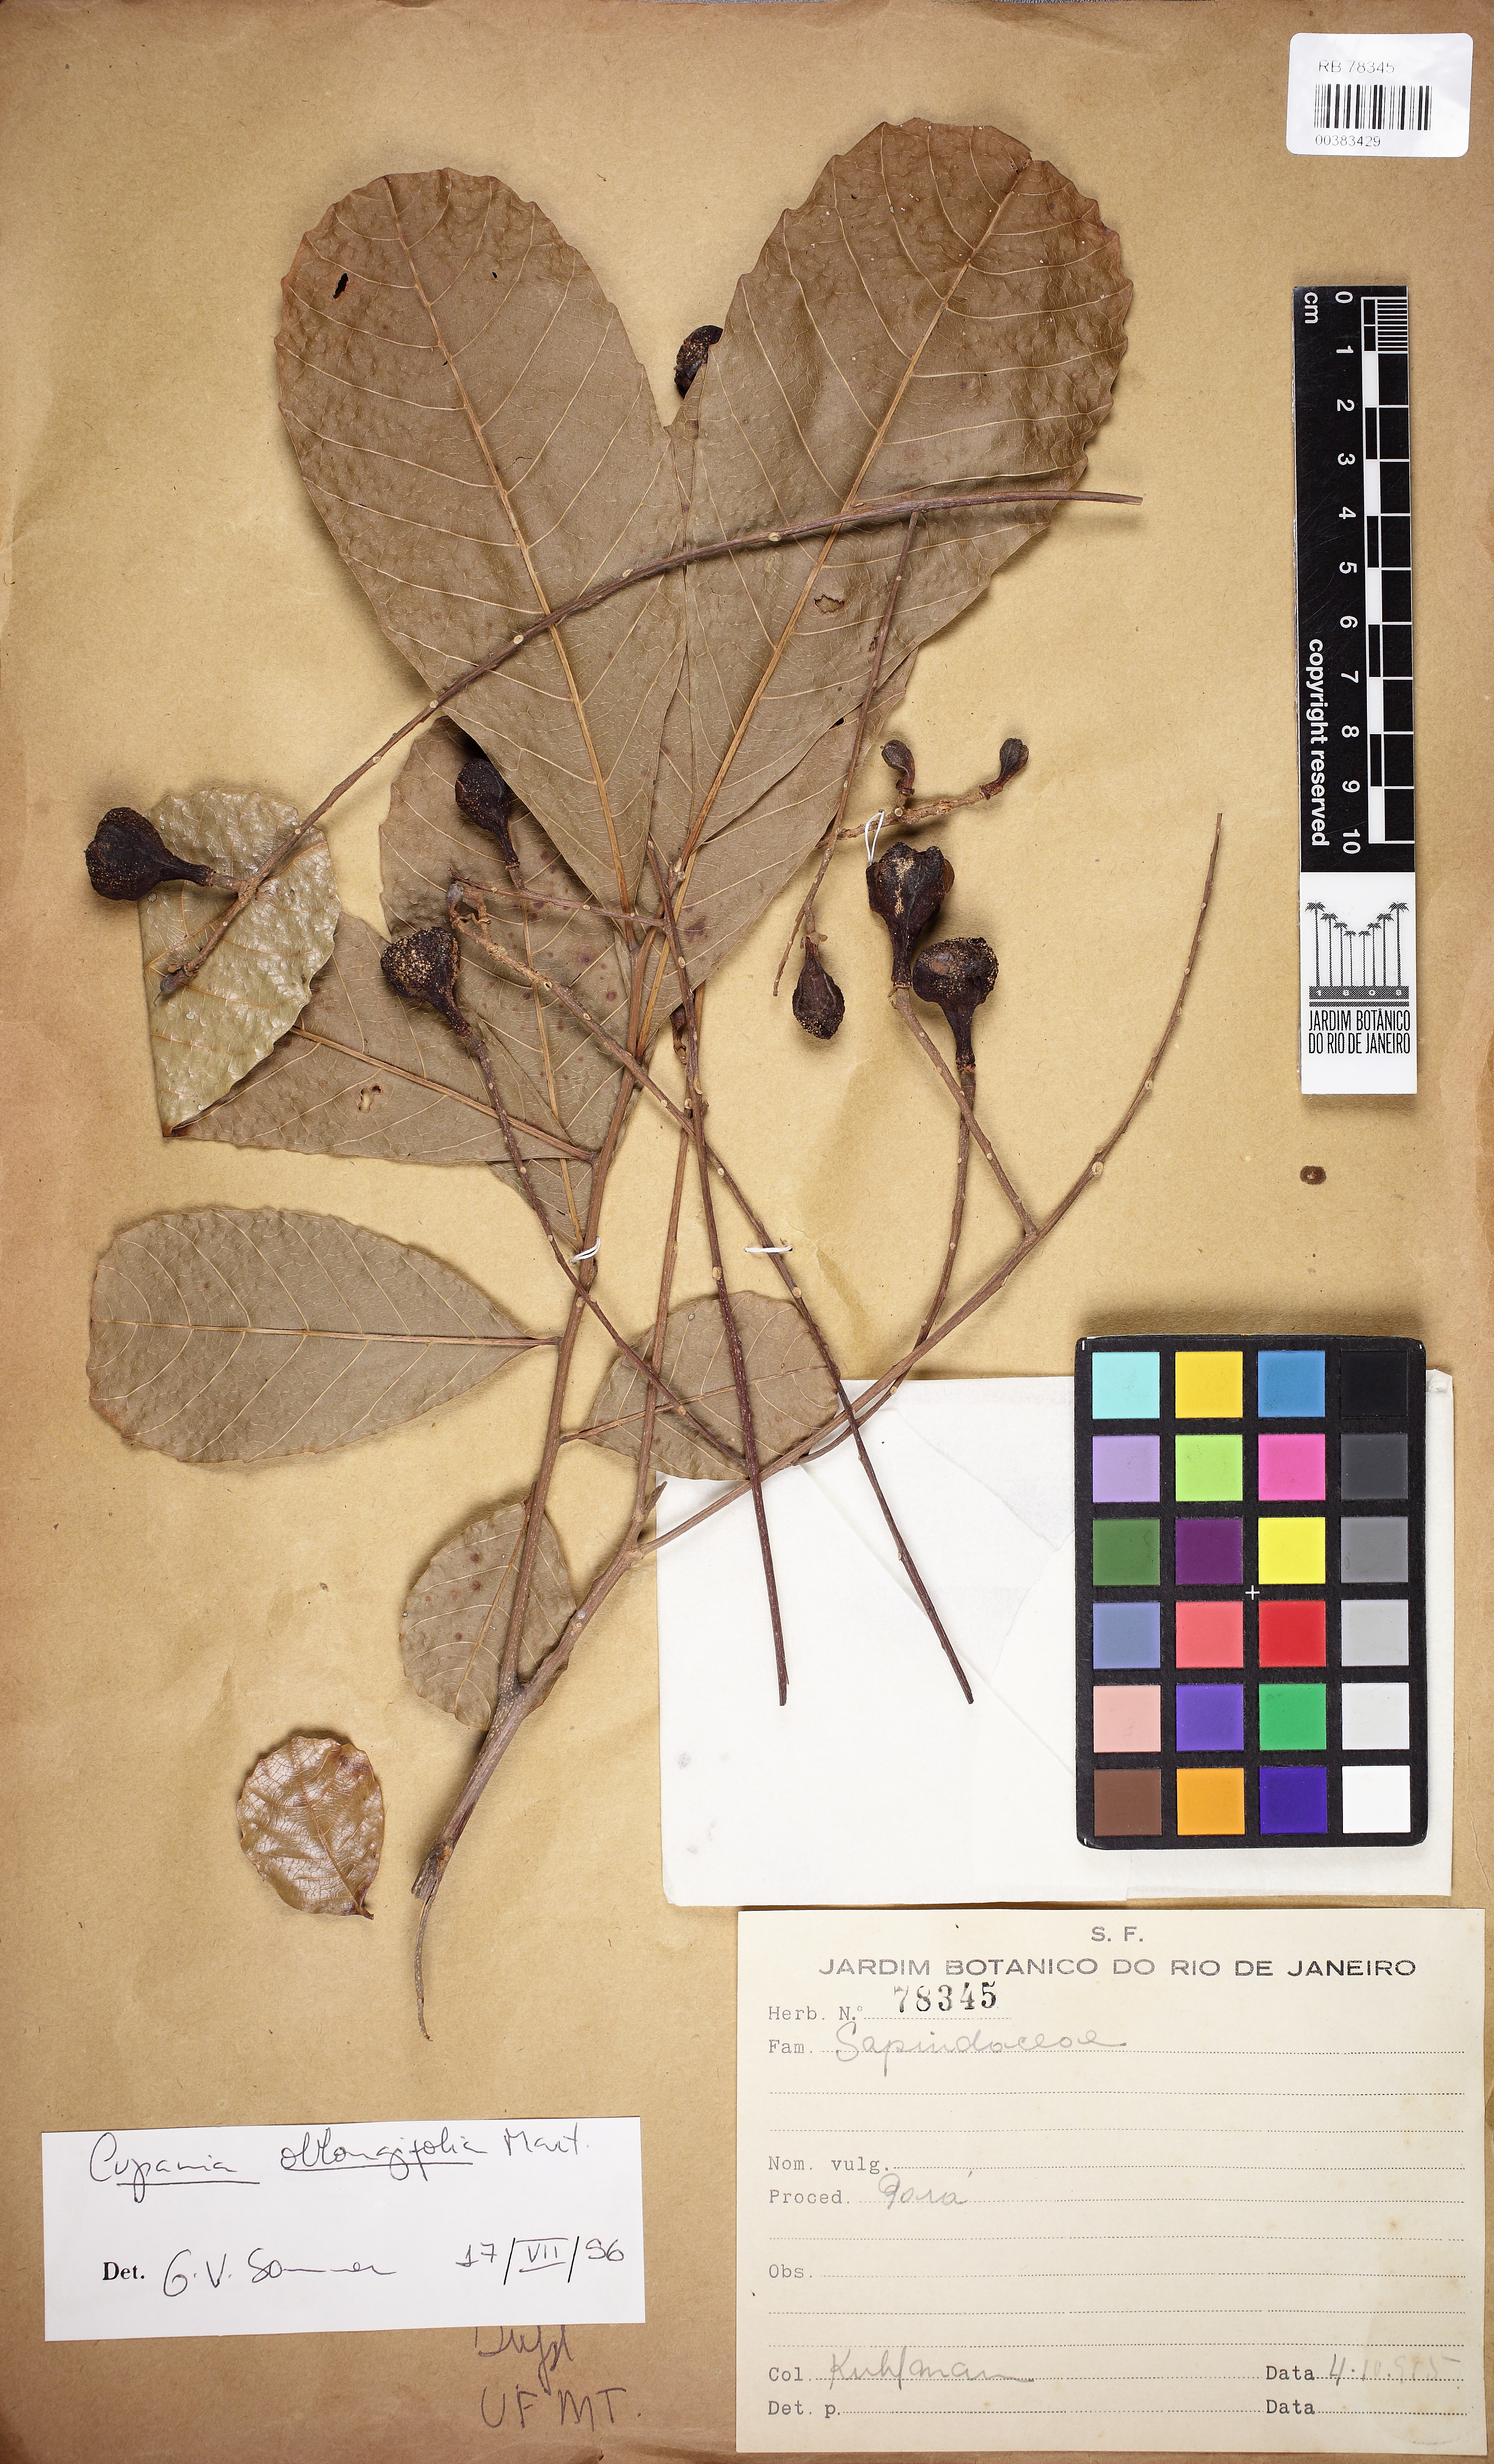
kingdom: Plantae
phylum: Tracheophyta
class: Magnoliopsida
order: Sapindales
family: Sapindaceae
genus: Cupania
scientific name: Cupania oblongifolia
